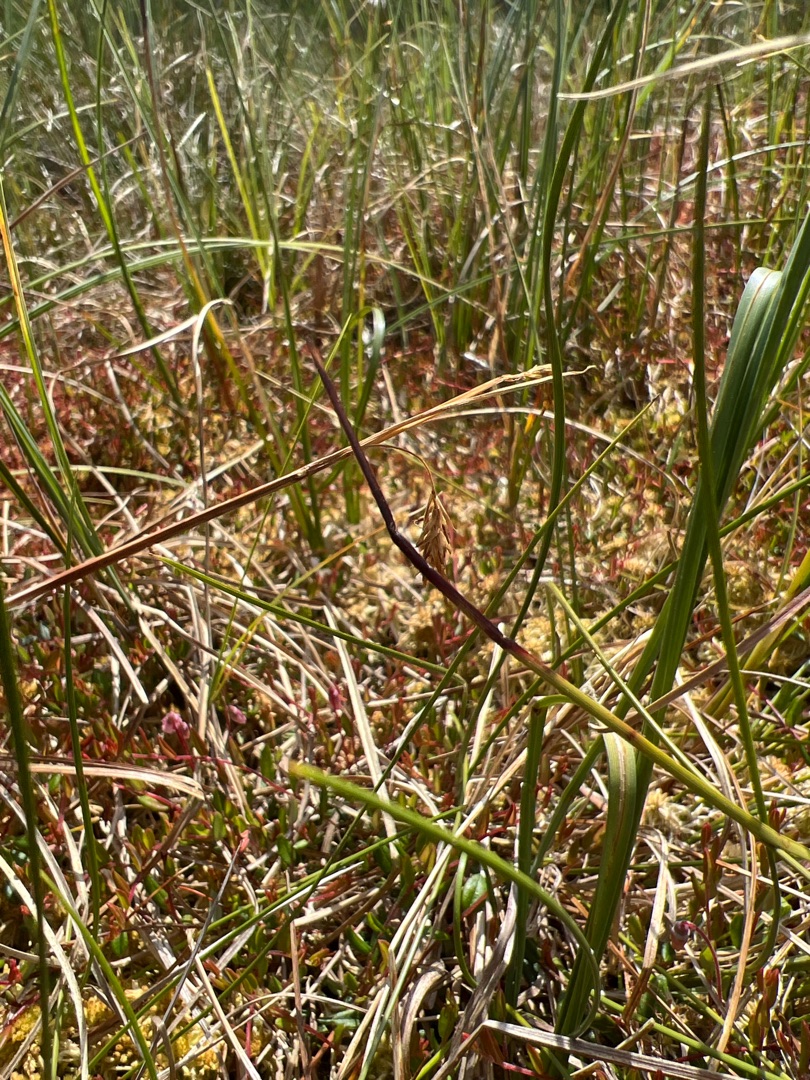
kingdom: Plantae
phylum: Tracheophyta
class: Liliopsida
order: Poales
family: Cyperaceae
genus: Carex
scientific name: Carex limosa
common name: Dynd-star
